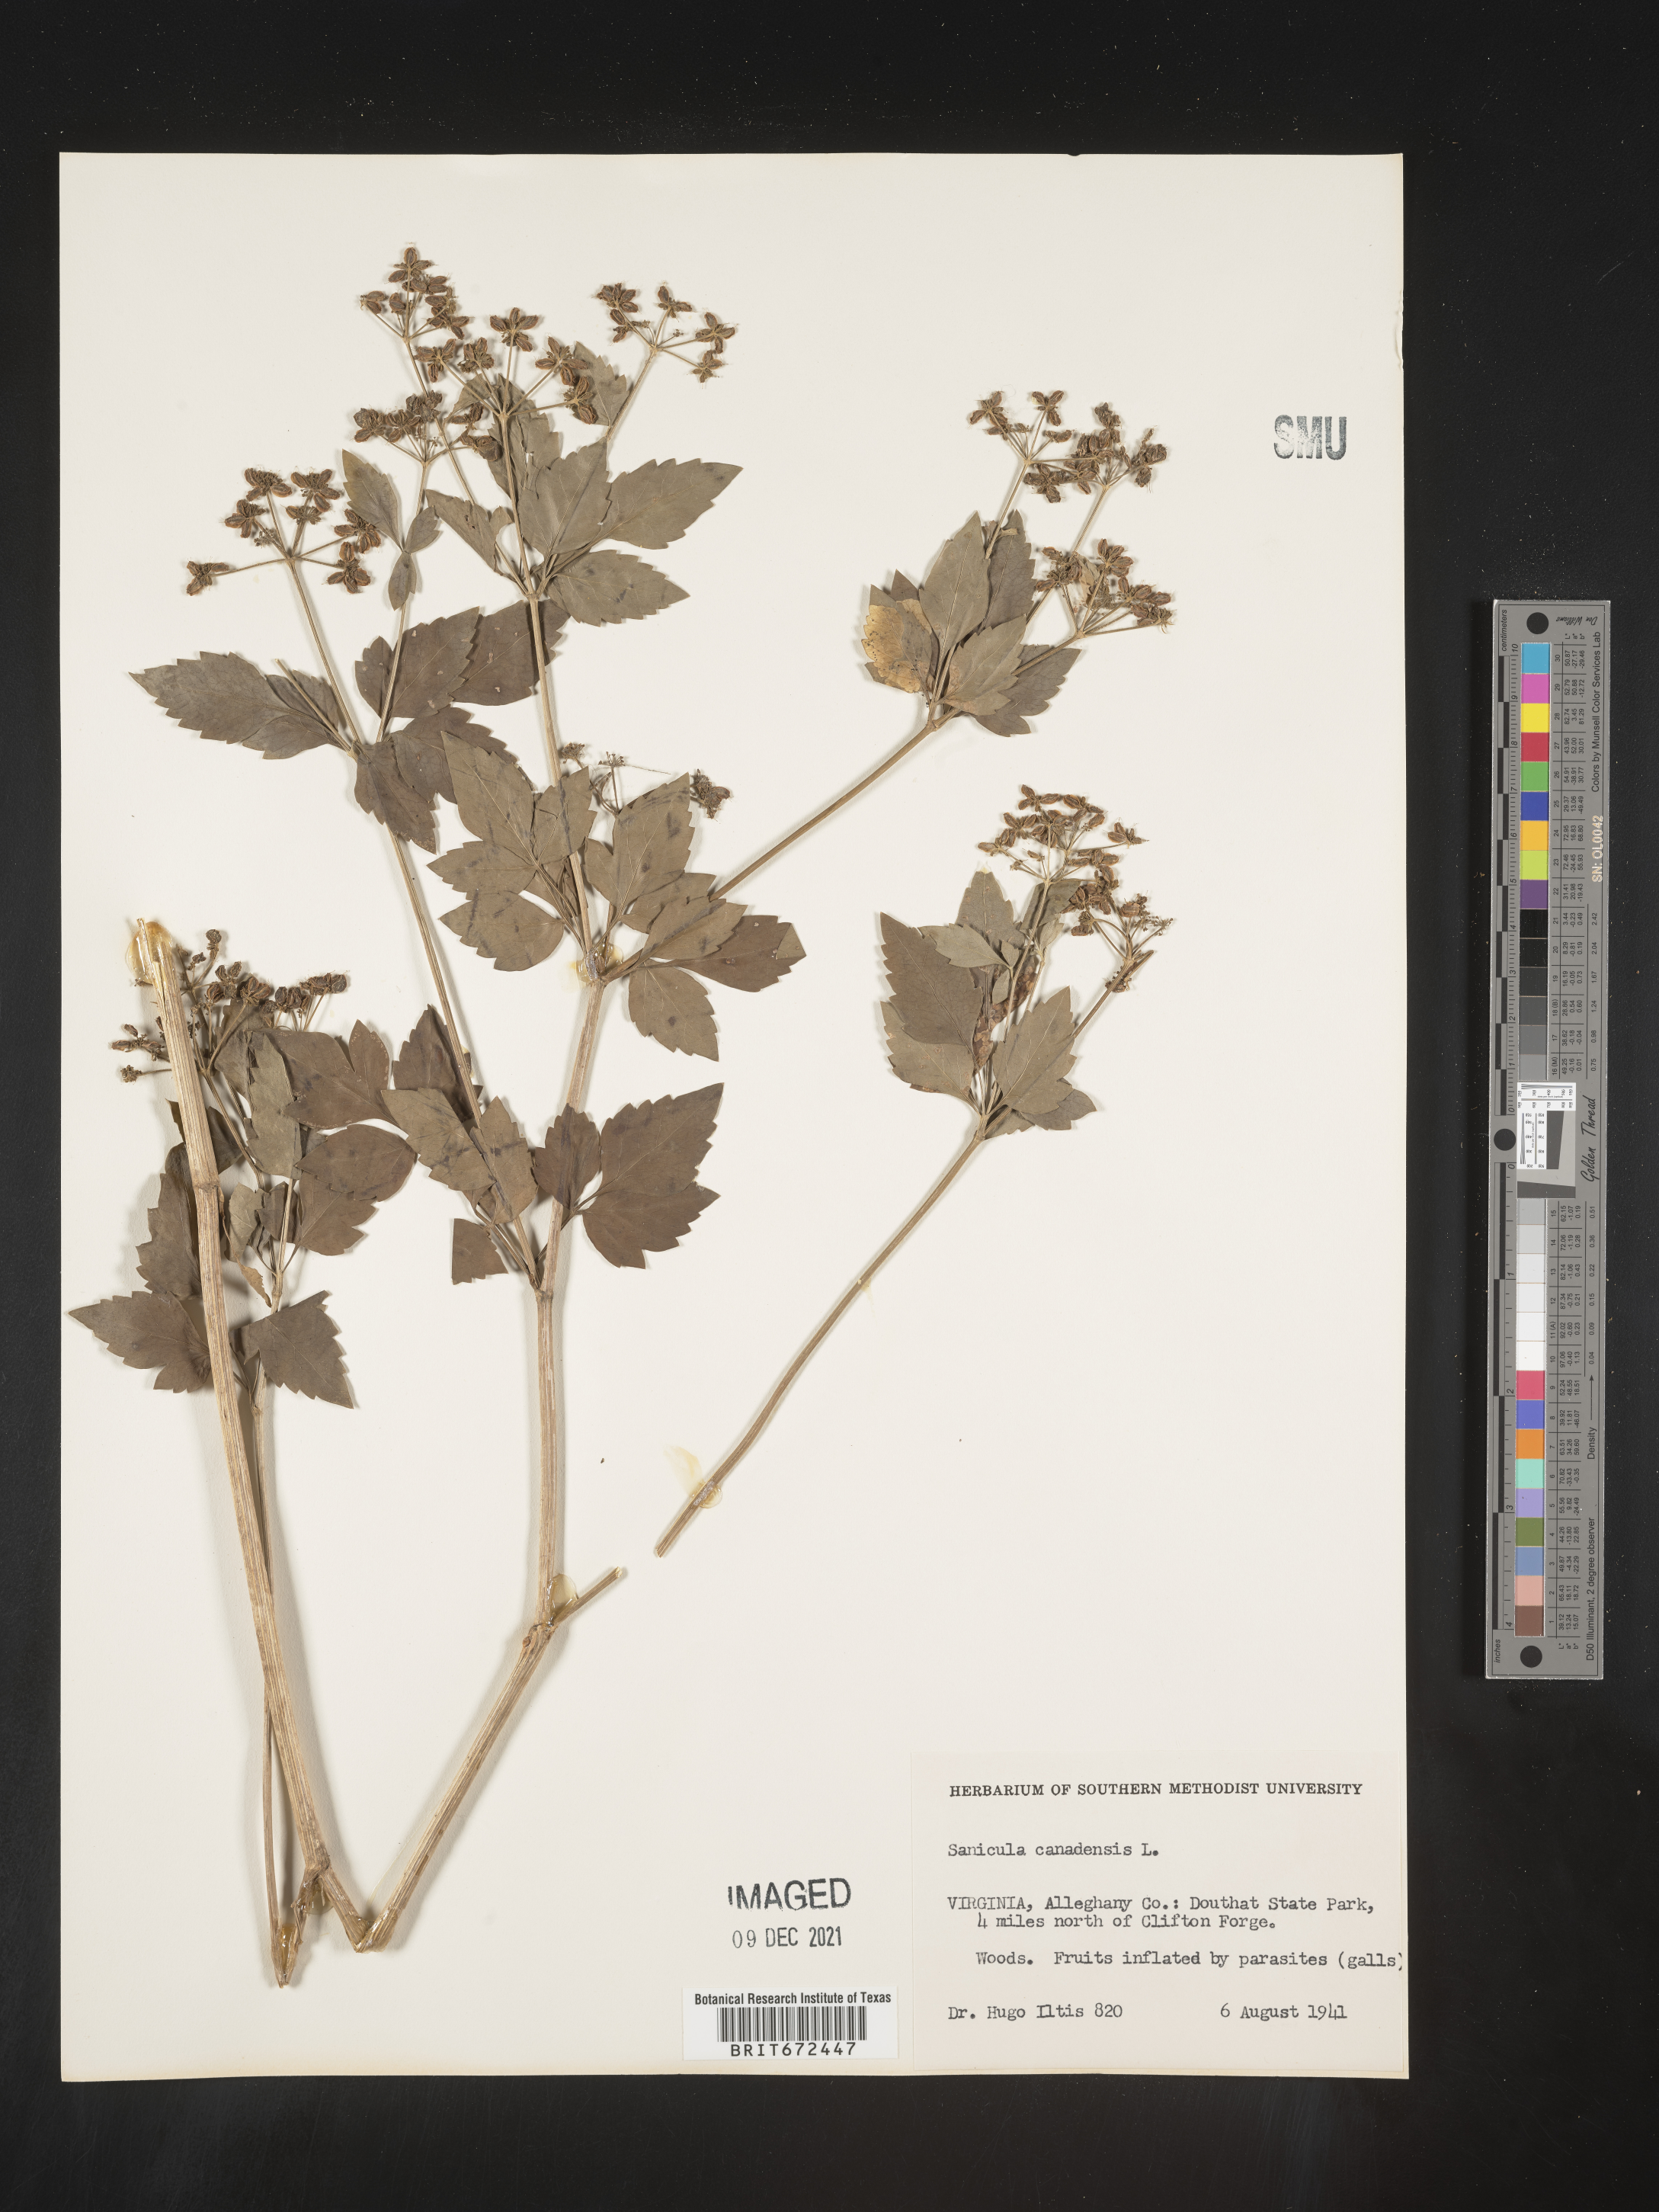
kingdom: Plantae
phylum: Tracheophyta
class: Magnoliopsida
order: Apiales
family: Apiaceae
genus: Sanicula
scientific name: Sanicula canadensis
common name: Canada sanicle
